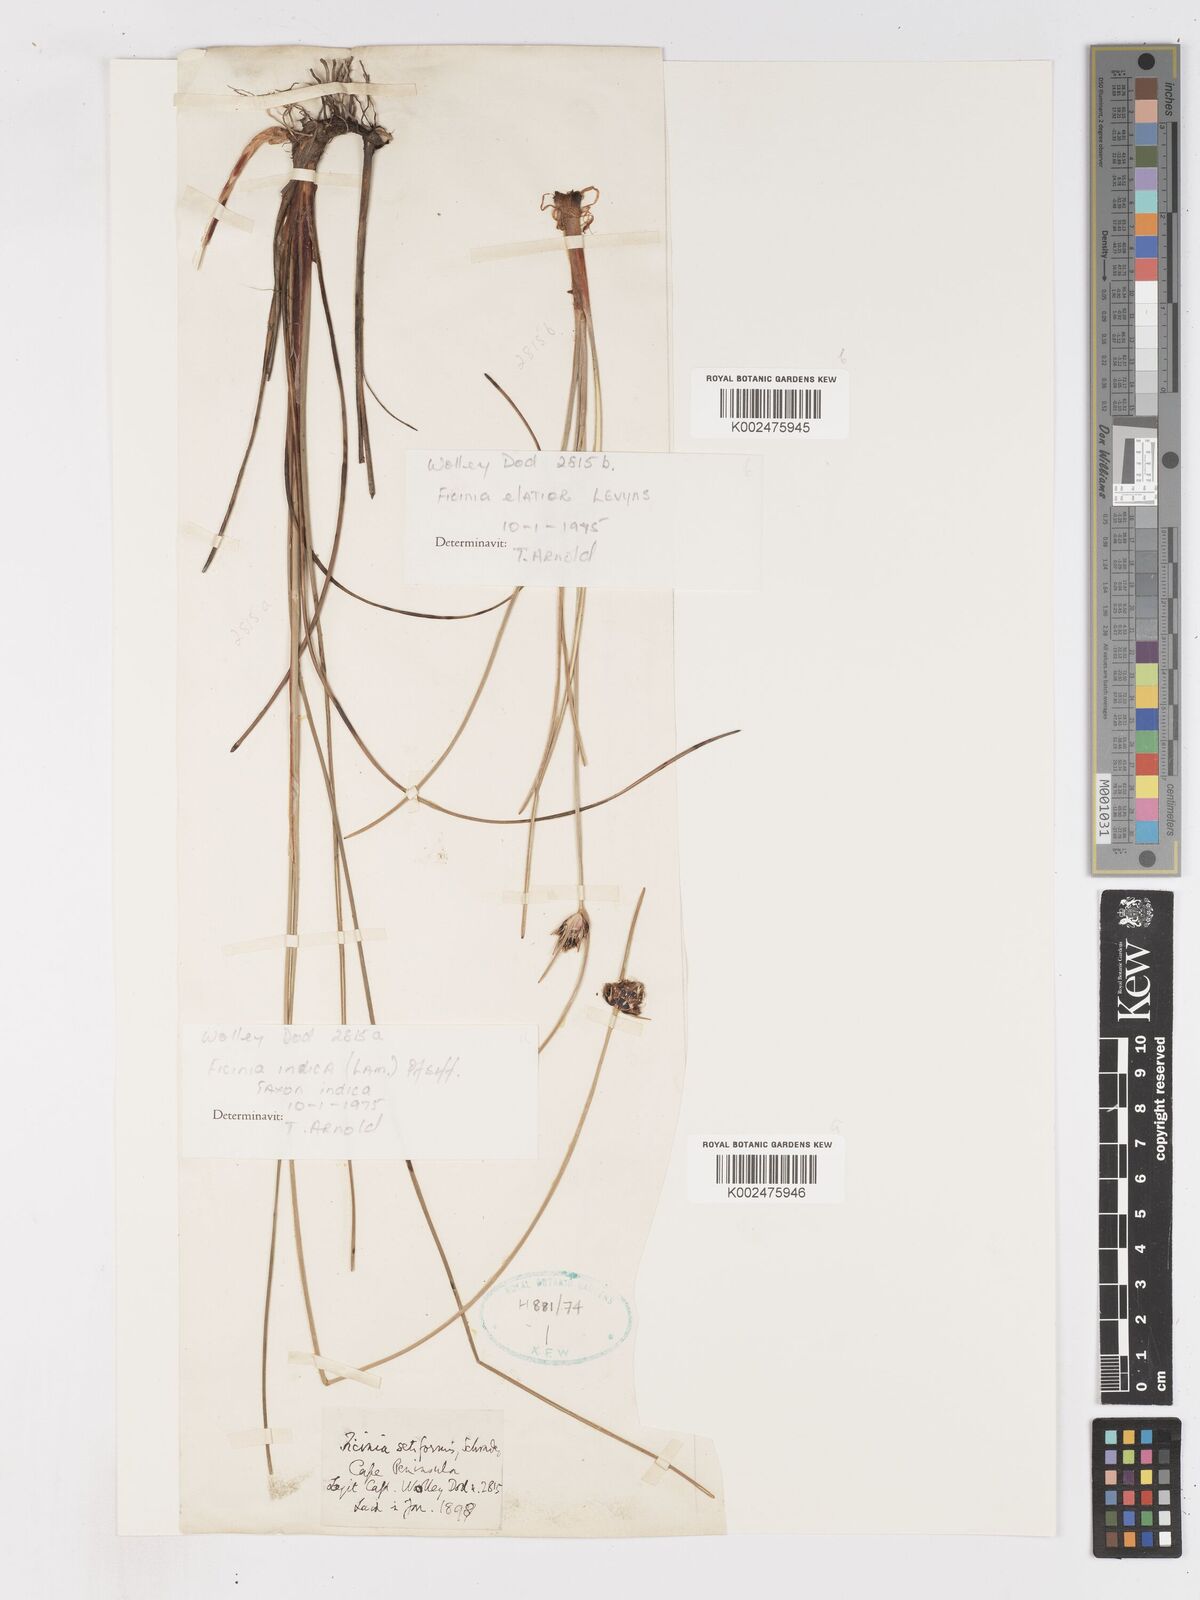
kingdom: Plantae
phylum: Tracheophyta
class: Liliopsida
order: Poales
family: Cyperaceae
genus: Ficinia
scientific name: Ficinia elatior
